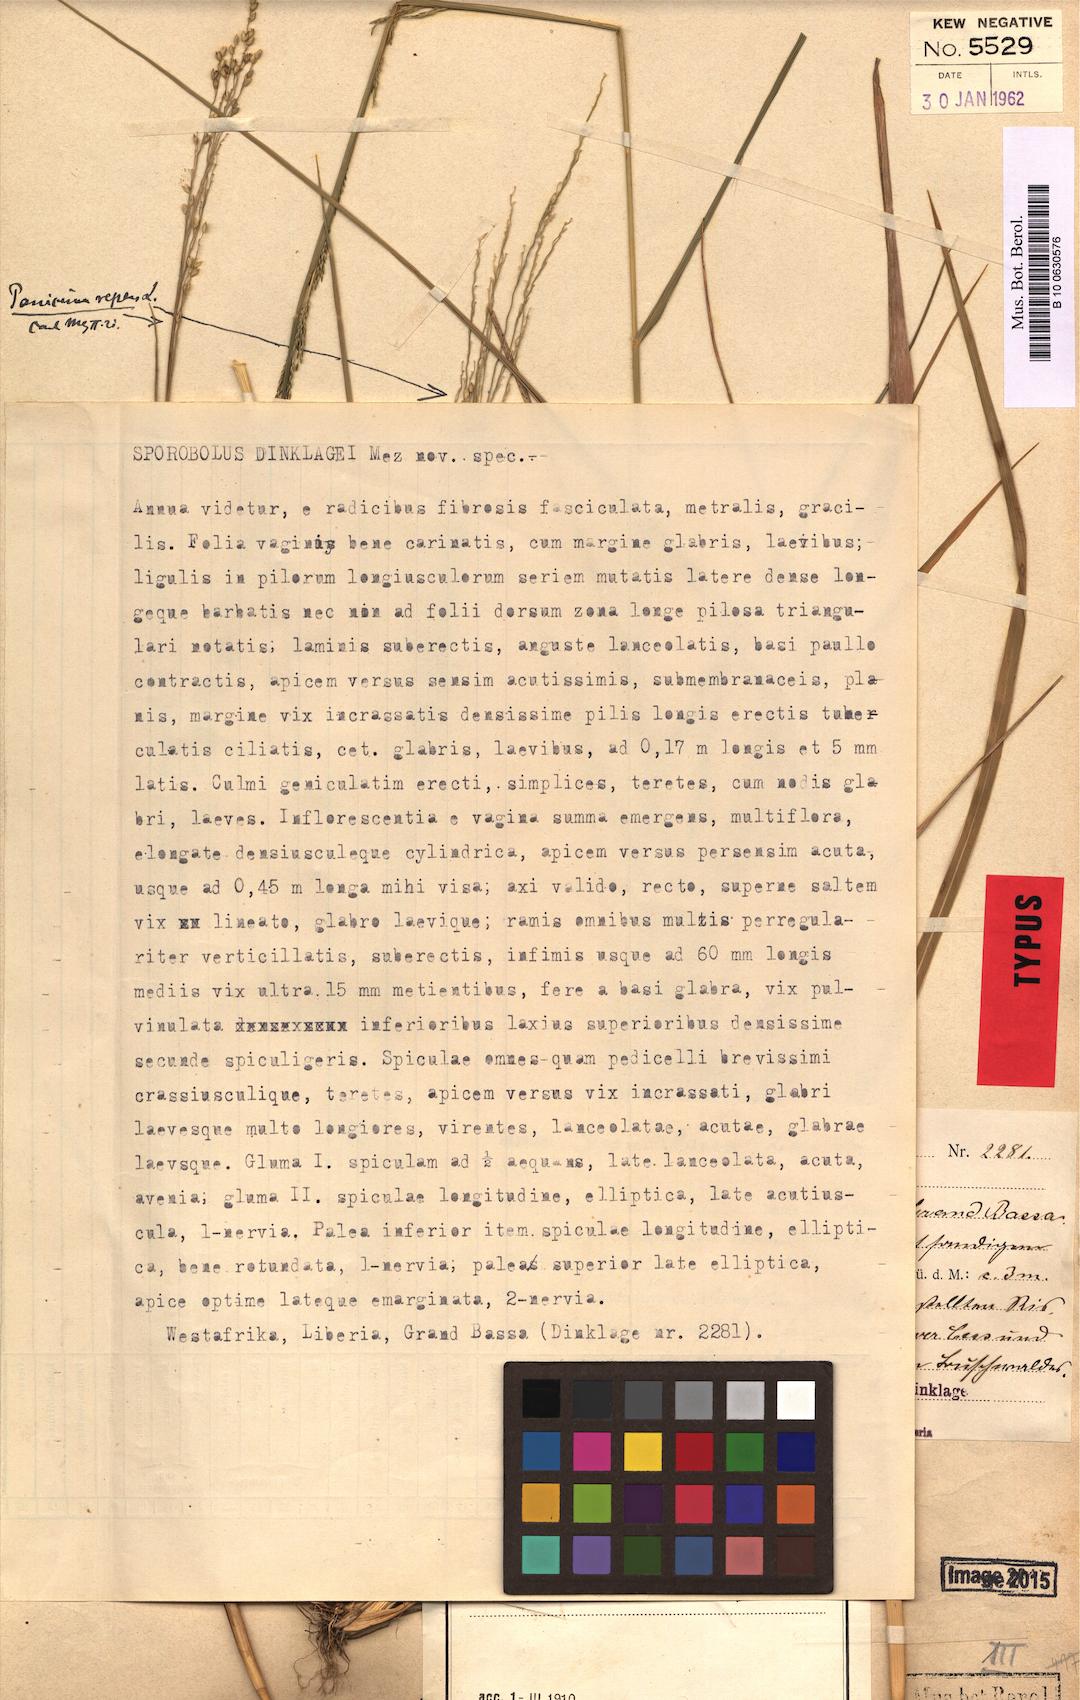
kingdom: Plantae
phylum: Tracheophyta
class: Liliopsida
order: Poales
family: Poaceae
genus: Sporobolus
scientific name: Sporobolus dinklagei
